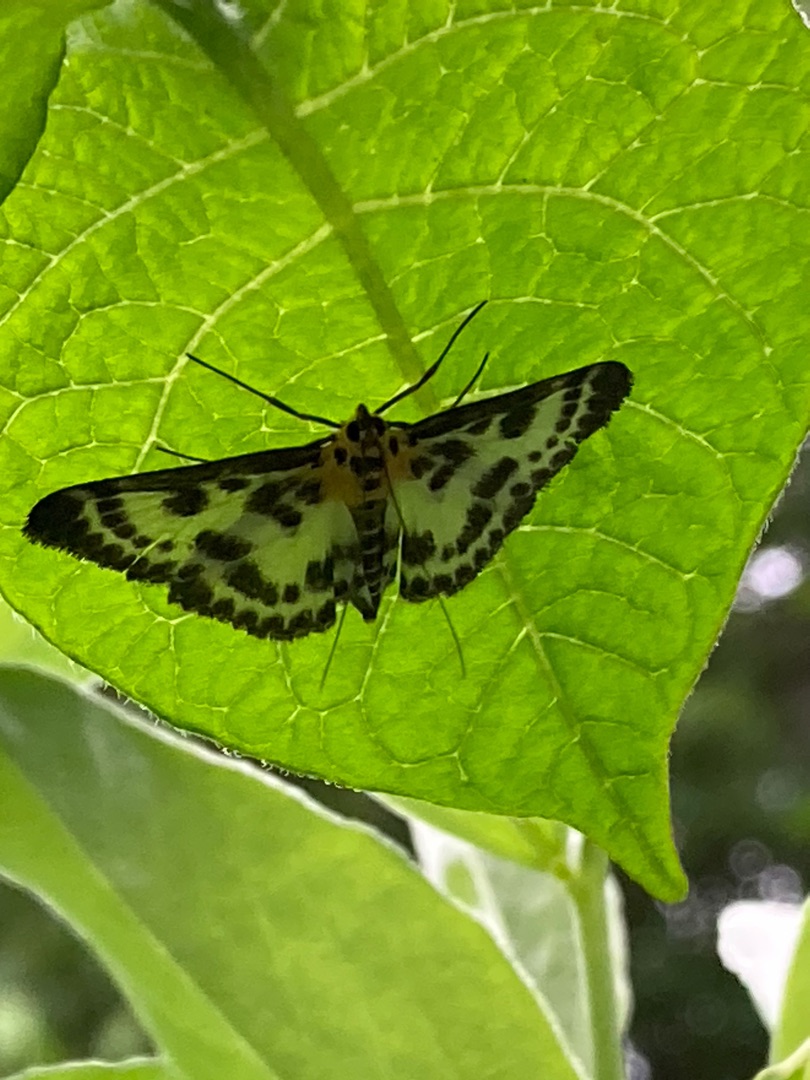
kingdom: Animalia
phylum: Arthropoda
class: Insecta
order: Lepidoptera
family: Crambidae
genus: Anania
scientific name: Anania hortulata
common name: Nældehalvmøl
